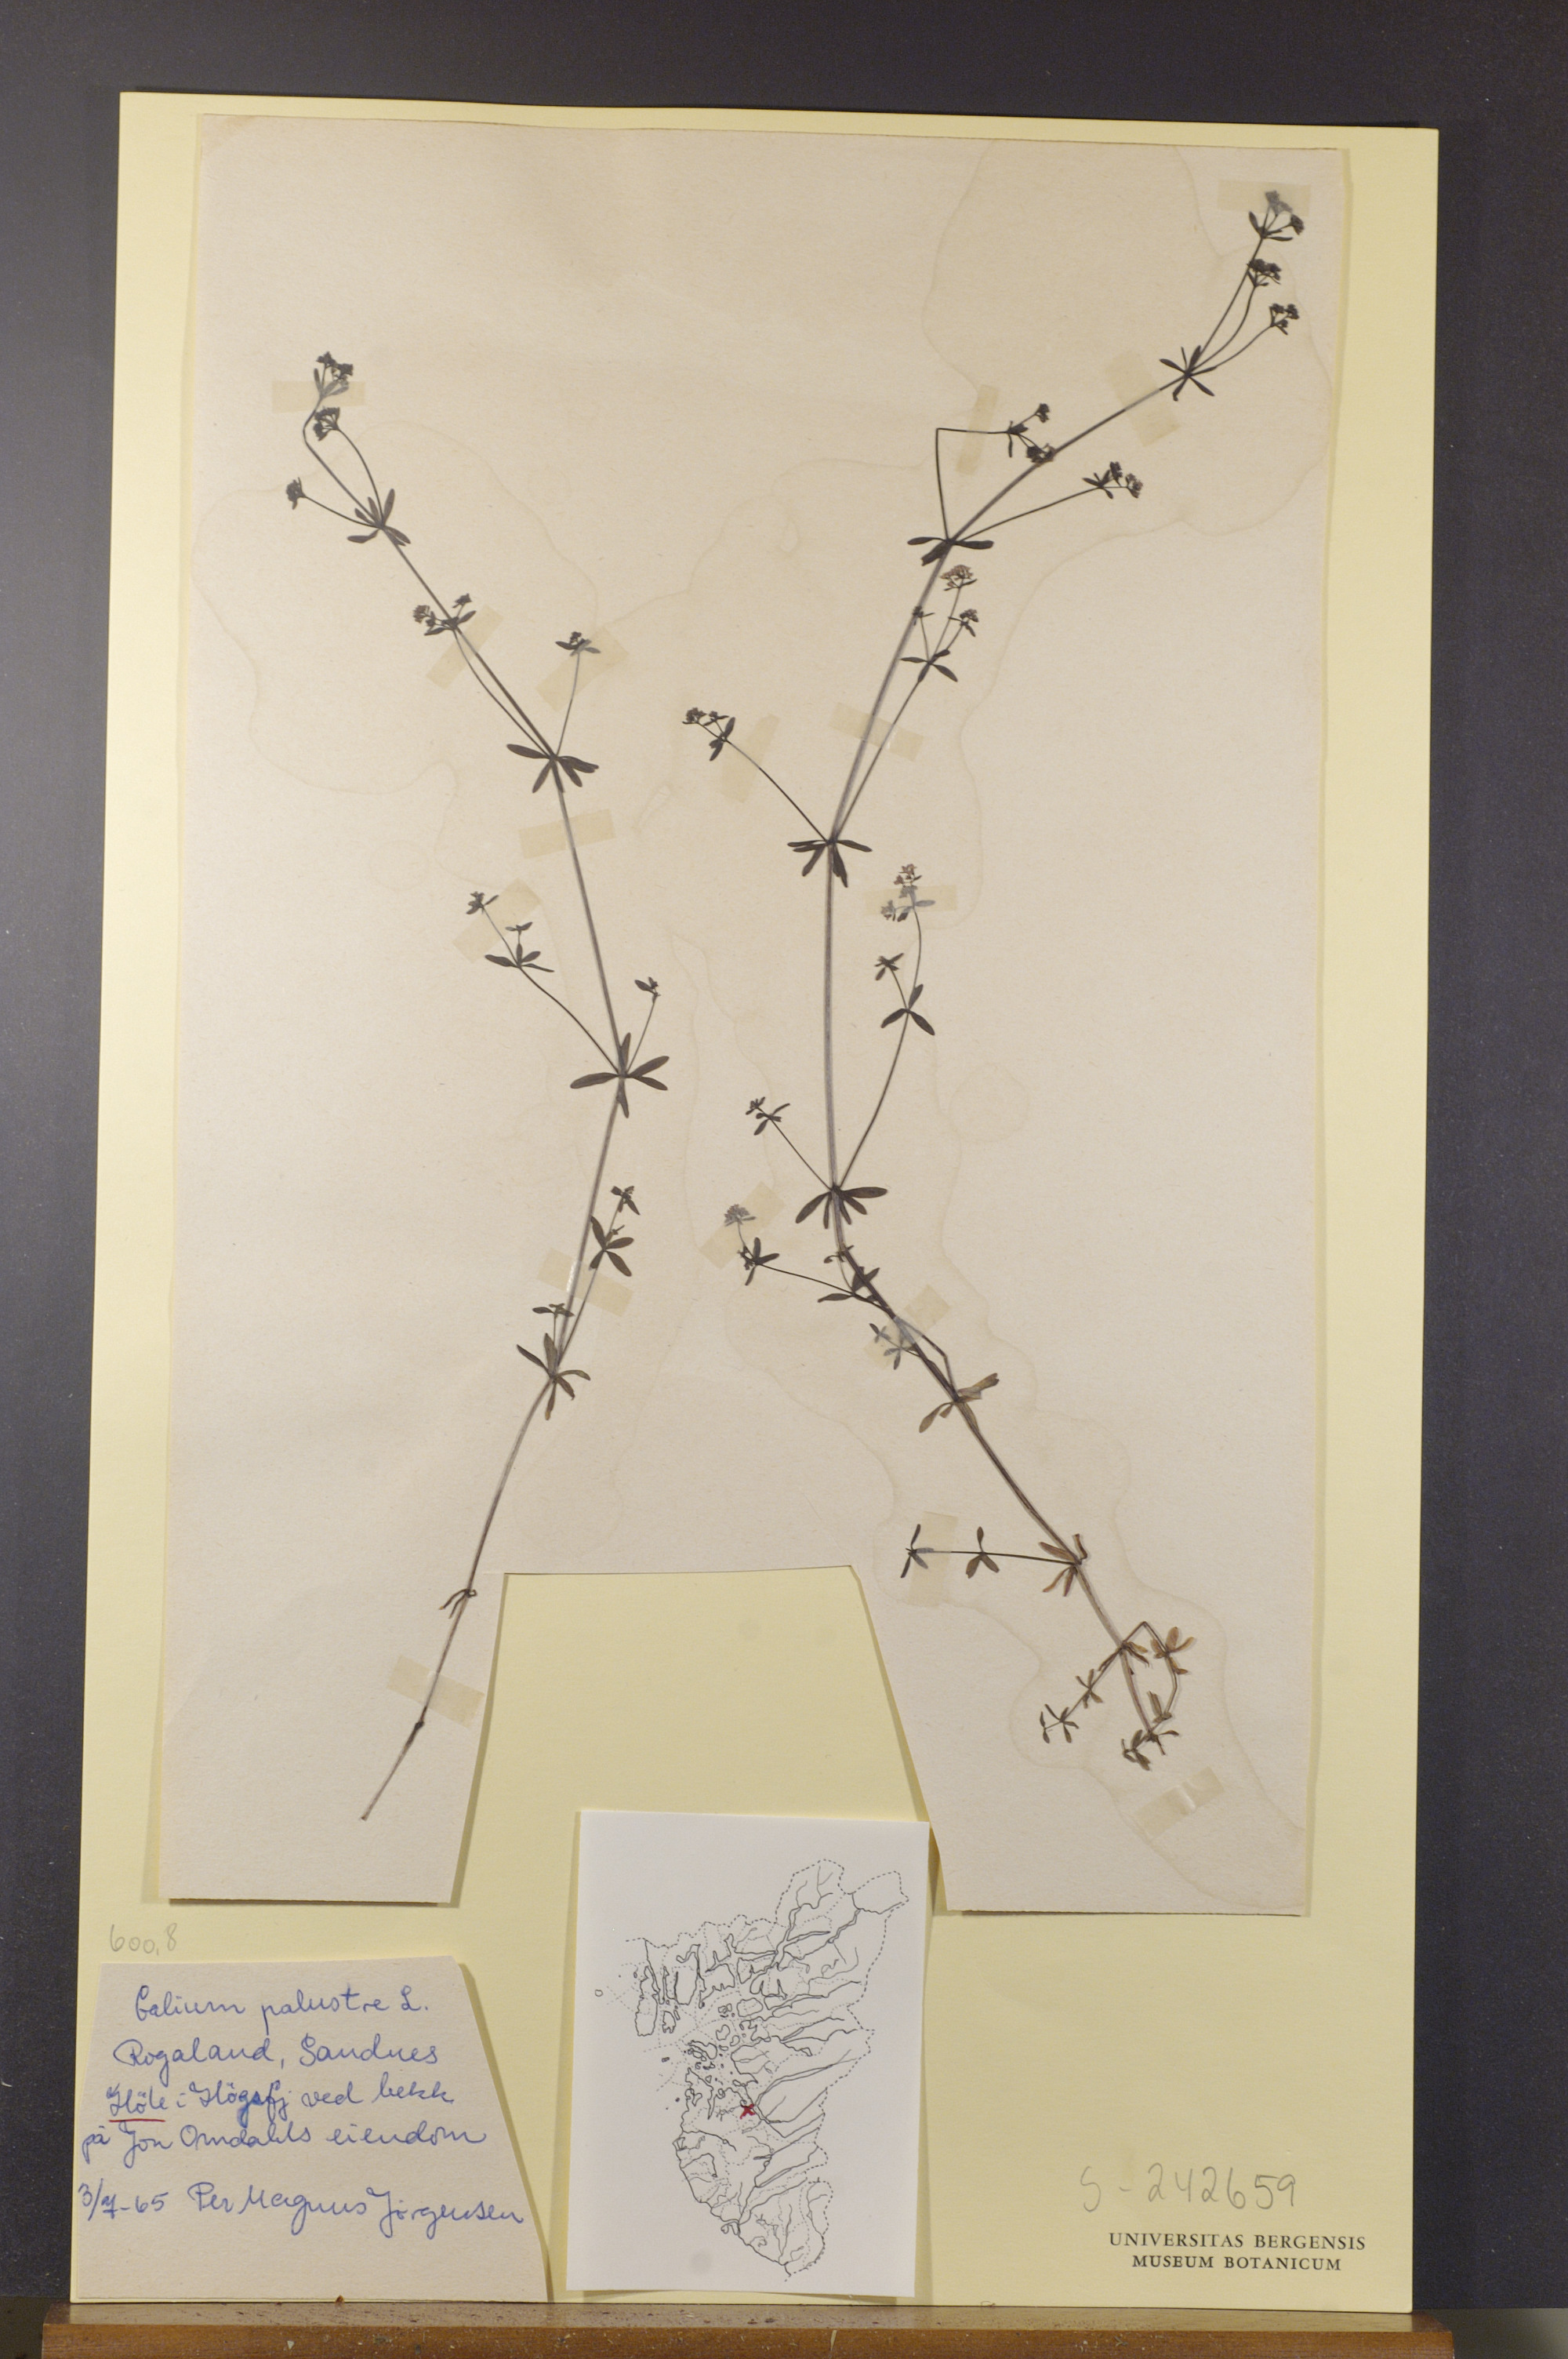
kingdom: Plantae
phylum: Tracheophyta
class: Magnoliopsida
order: Gentianales
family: Rubiaceae
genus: Galium
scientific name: Galium palustre
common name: Common marsh-bedstraw
